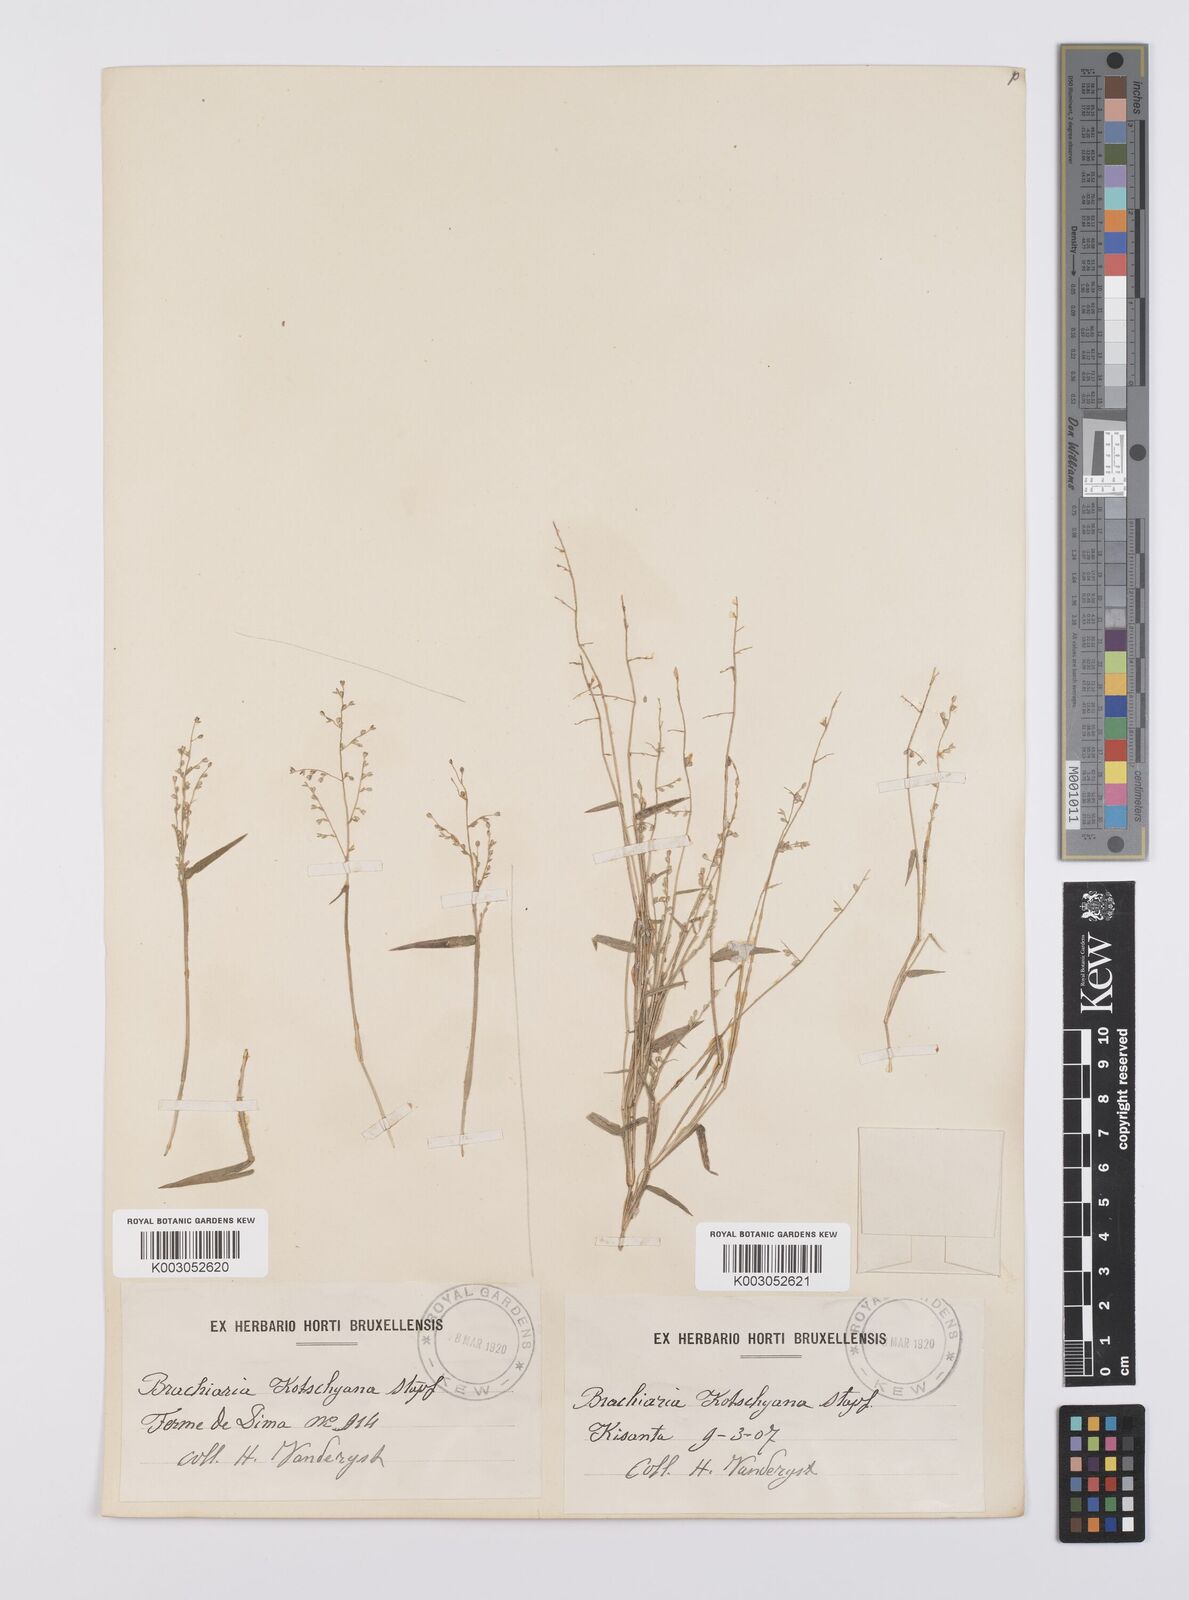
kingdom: Plantae
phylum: Tracheophyta
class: Liliopsida
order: Poales
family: Poaceae
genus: Urochloa
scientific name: Urochloa comata
